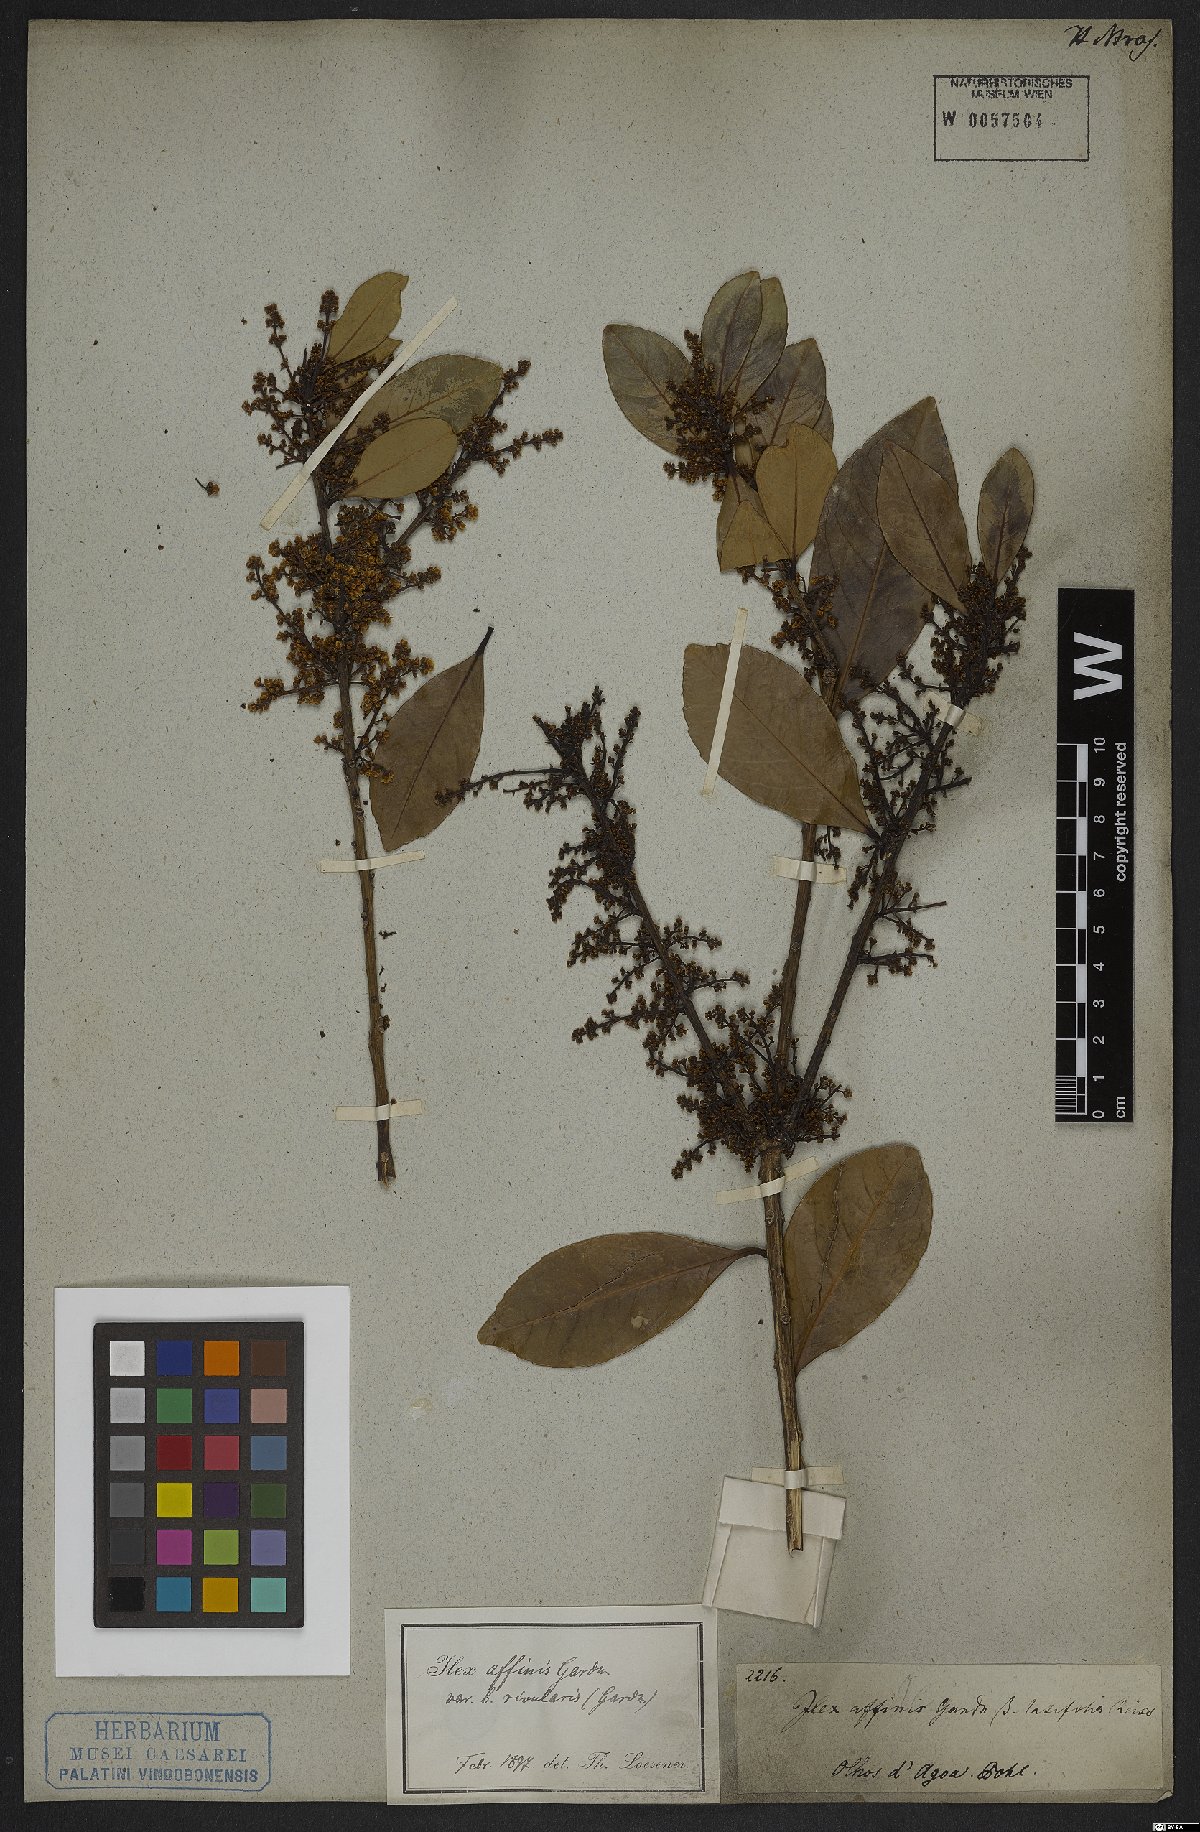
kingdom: Plantae
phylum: Tracheophyta
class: Magnoliopsida
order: Aquifoliales
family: Aquifoliaceae
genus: Ilex
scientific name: Ilex affinis
